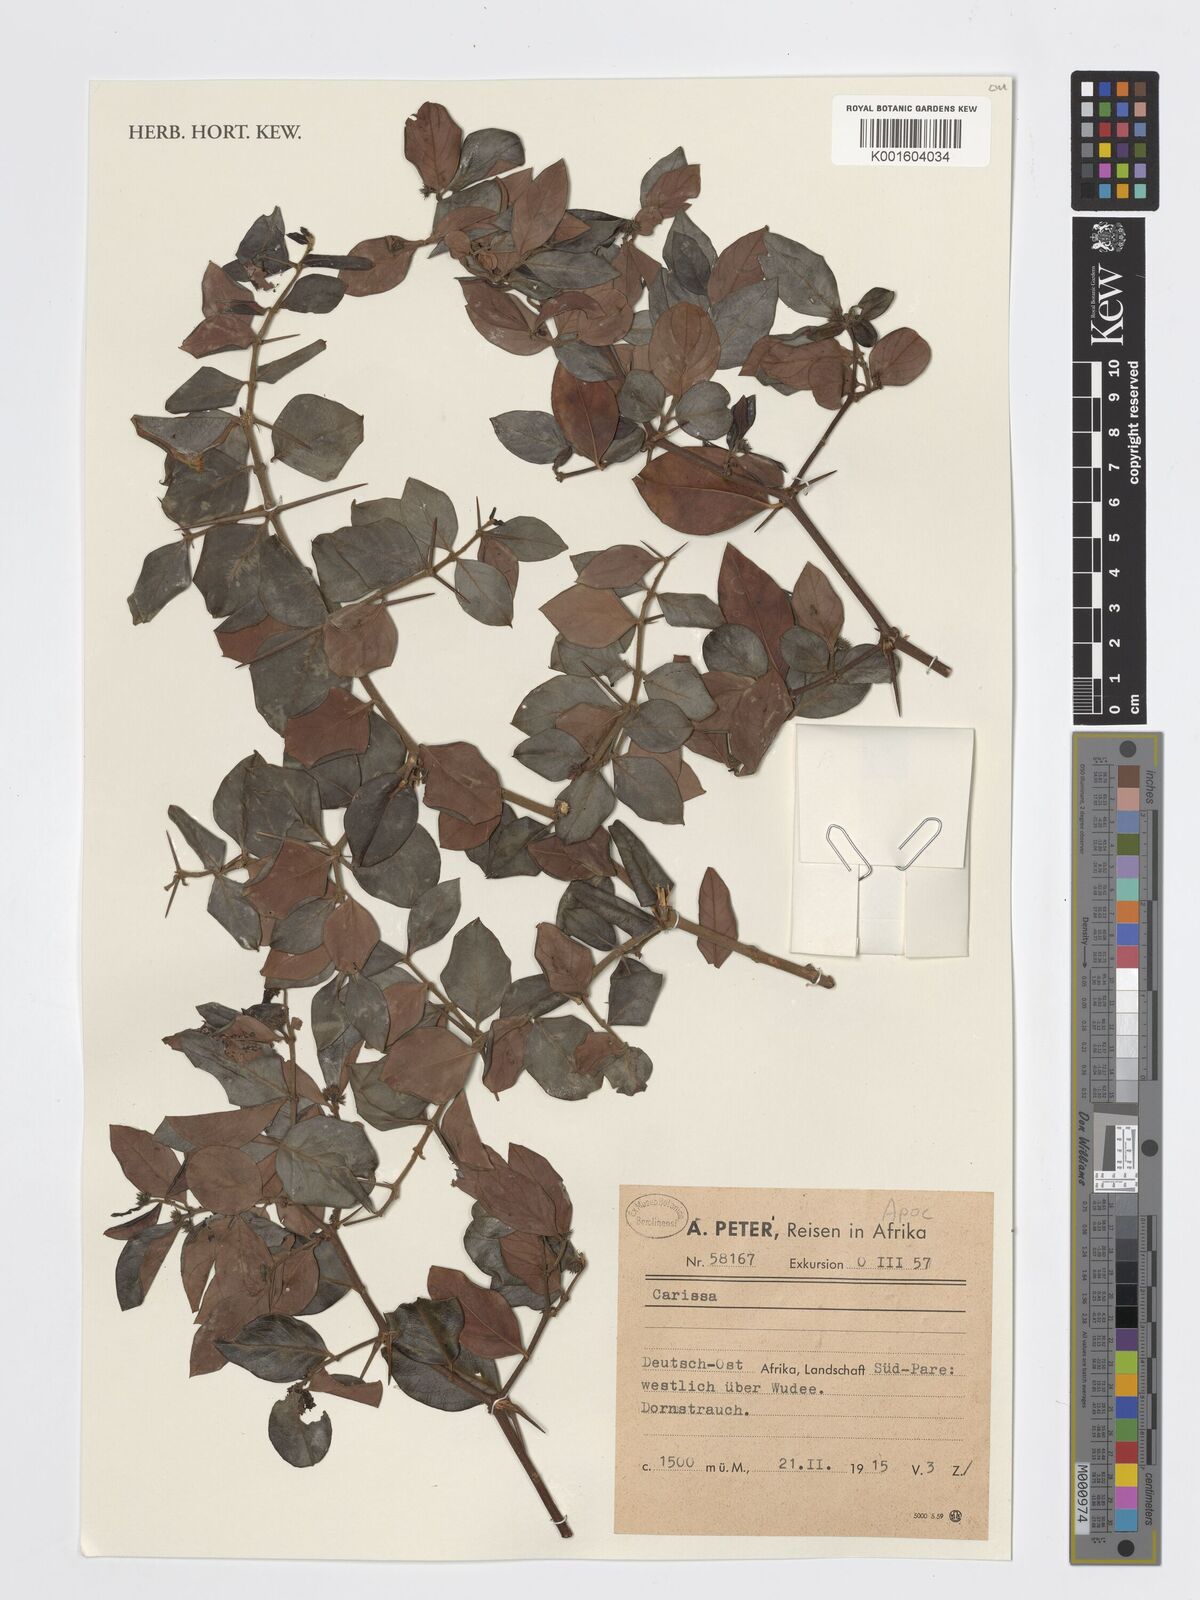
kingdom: Plantae
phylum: Tracheophyta
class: Magnoliopsida
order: Gentianales
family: Apocynaceae
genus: Carissa
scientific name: Carissa
